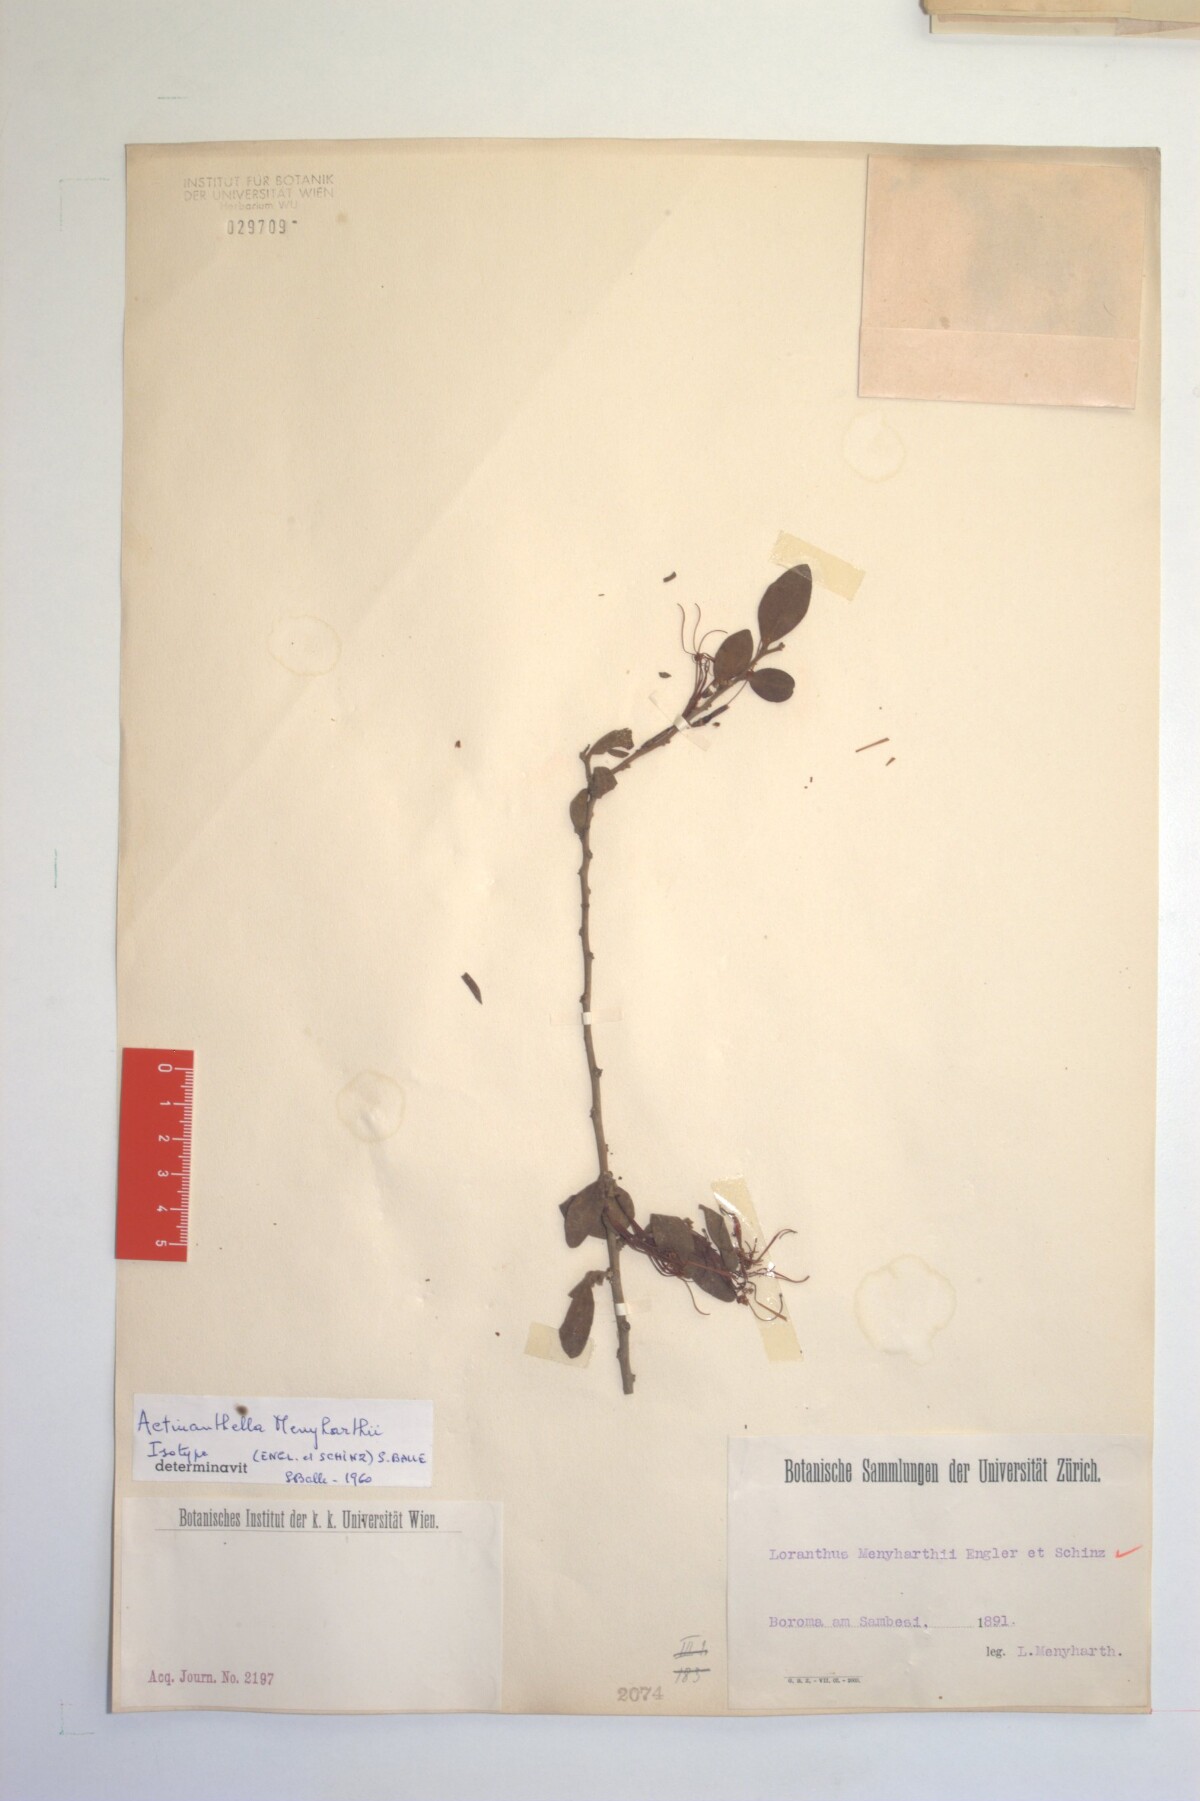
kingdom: Plantae
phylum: Tracheophyta
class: Magnoliopsida
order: Santalales
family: Loranthaceae
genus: Actinanthella
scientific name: Actinanthella menyharthii
